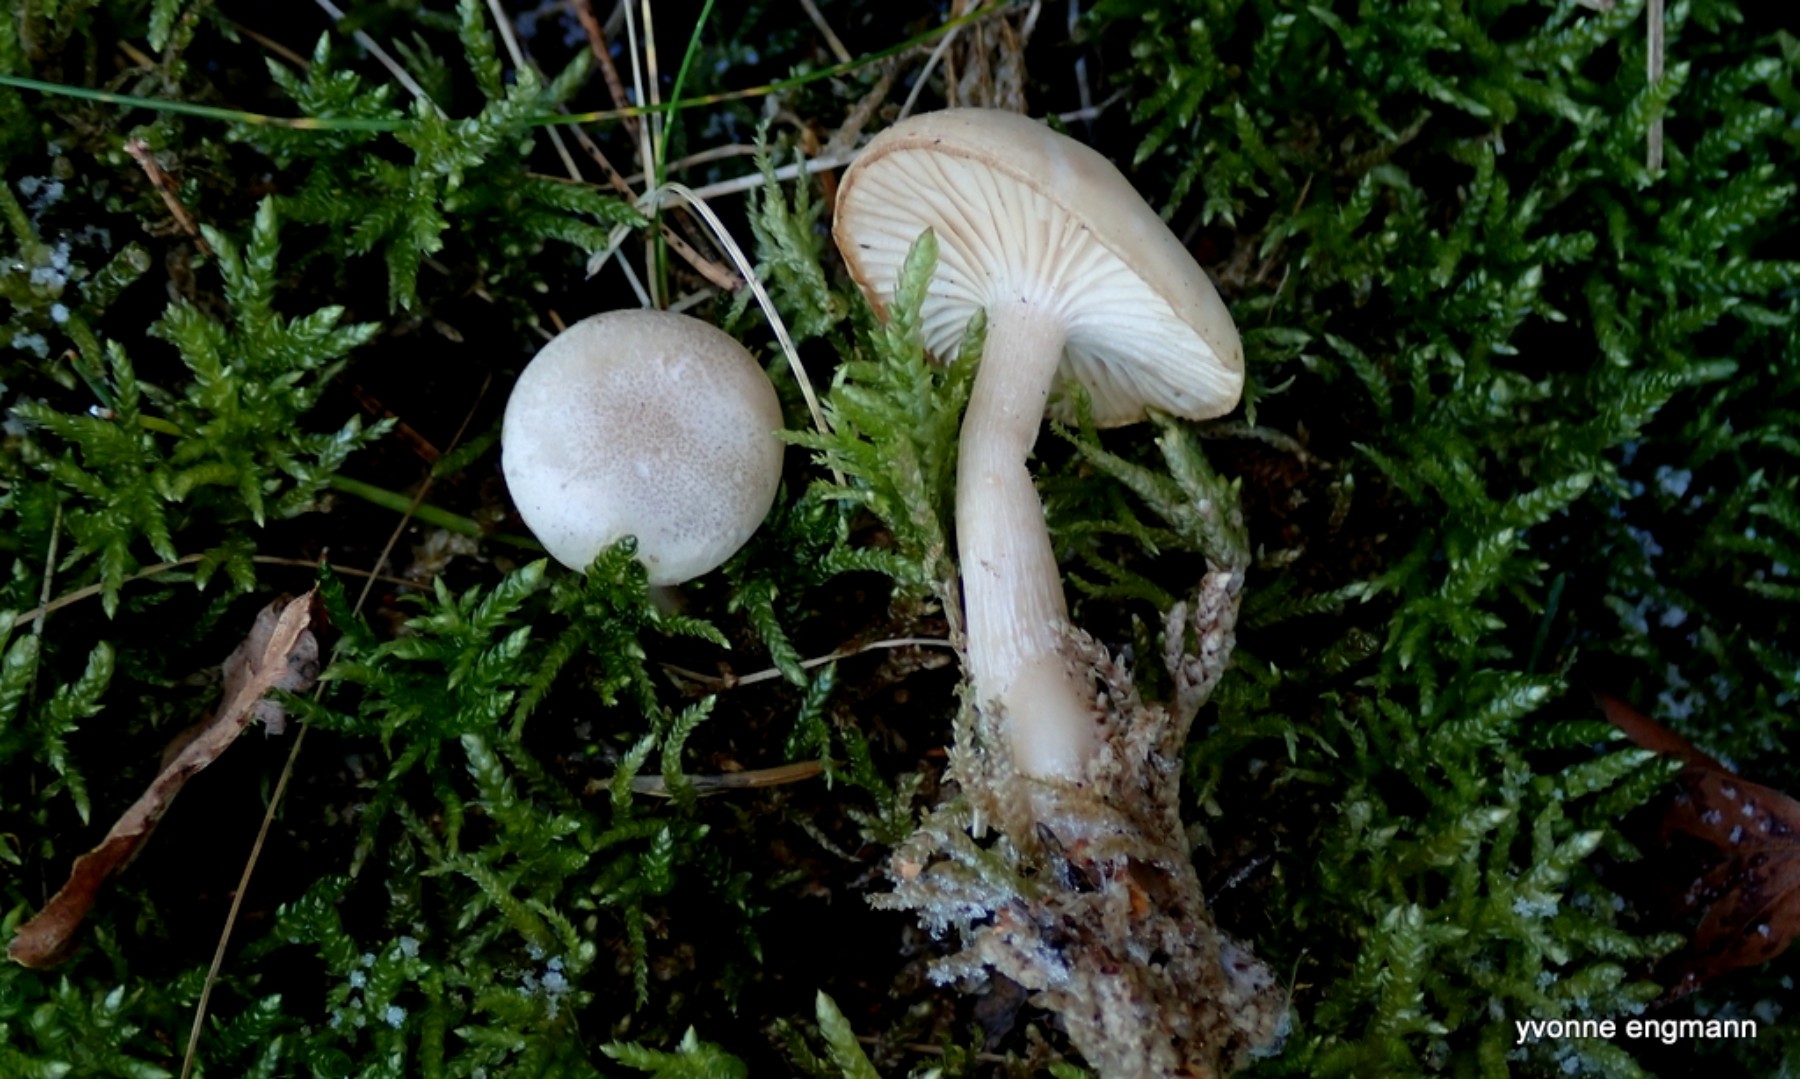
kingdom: Fungi
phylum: Basidiomycota
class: Agaricomycetes
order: Agaricales
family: Tricholomataceae
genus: Clitocybe
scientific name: Clitocybe fragrans
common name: vellugtende tragthat
